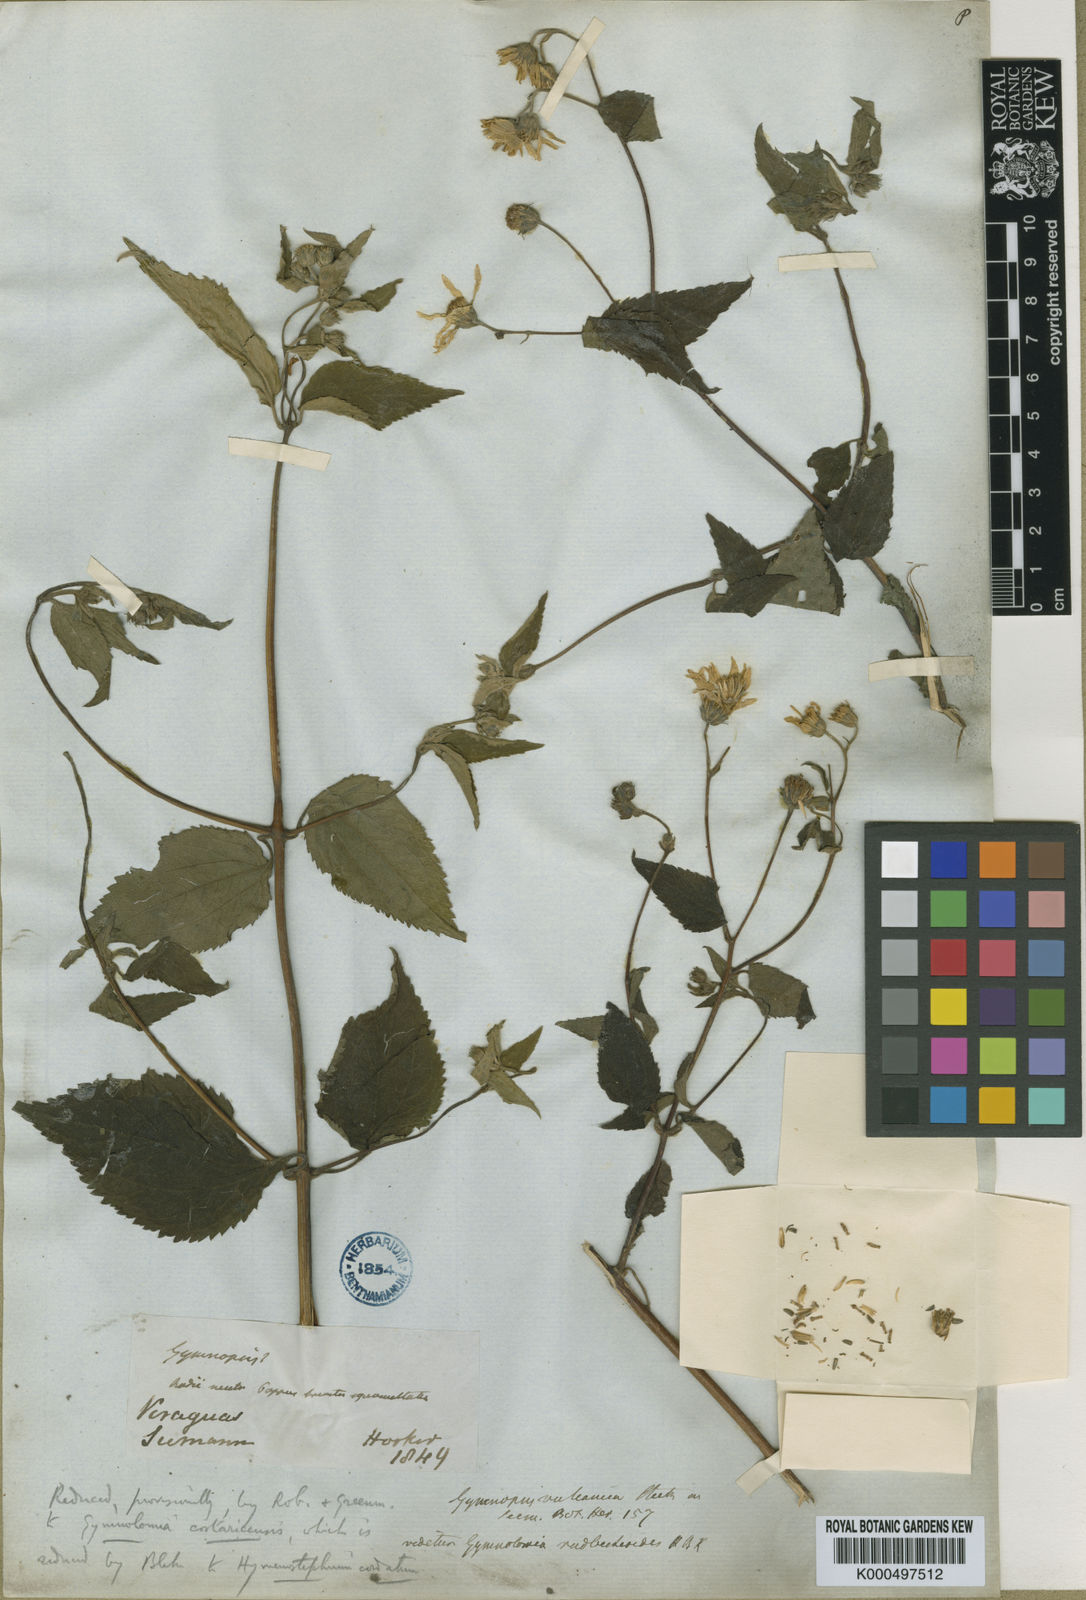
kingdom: Plantae
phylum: Tracheophyta
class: Magnoliopsida
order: Asterales
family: Asteraceae
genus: Hymenostephium
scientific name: Hymenostephium cordatum
